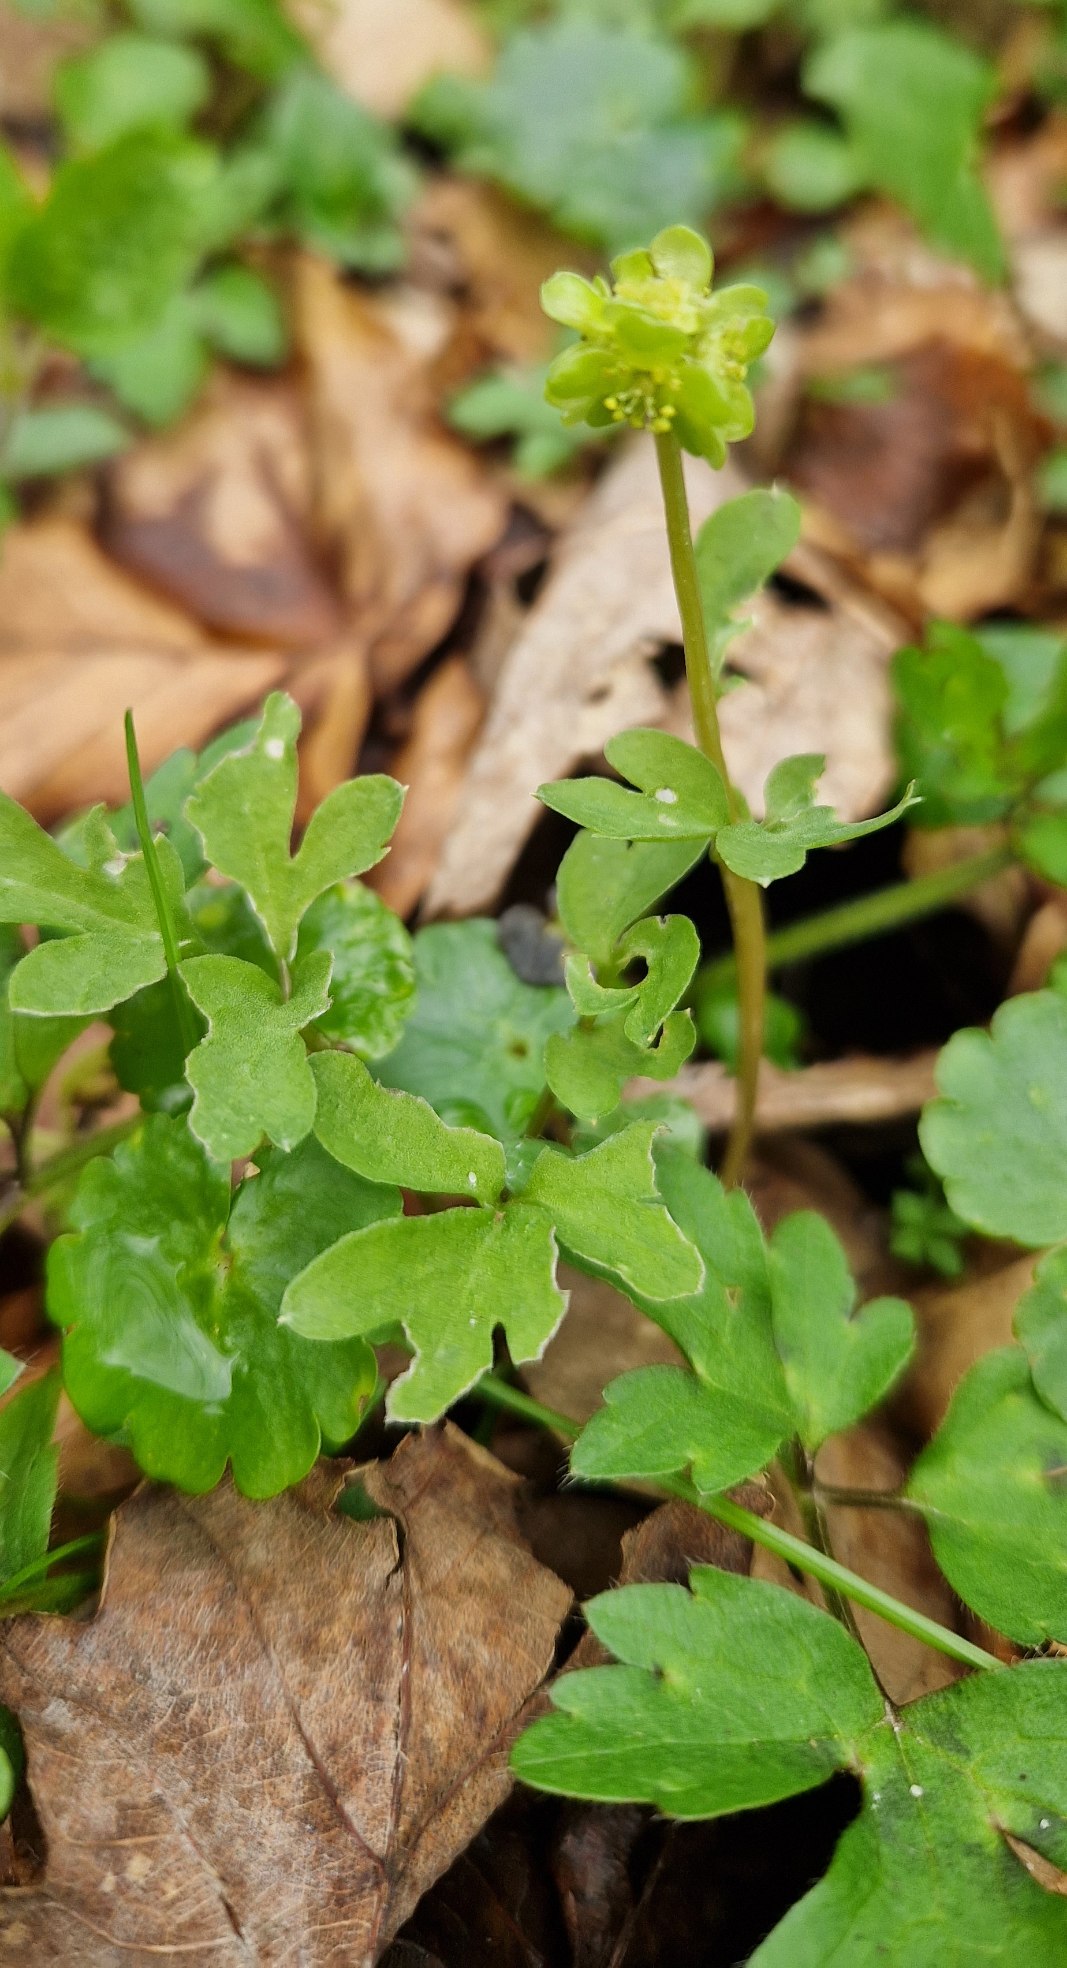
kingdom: Plantae
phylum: Tracheophyta
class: Magnoliopsida
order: Dipsacales
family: Viburnaceae
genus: Adoxa
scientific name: Adoxa moschatellina
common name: Desmerurt
